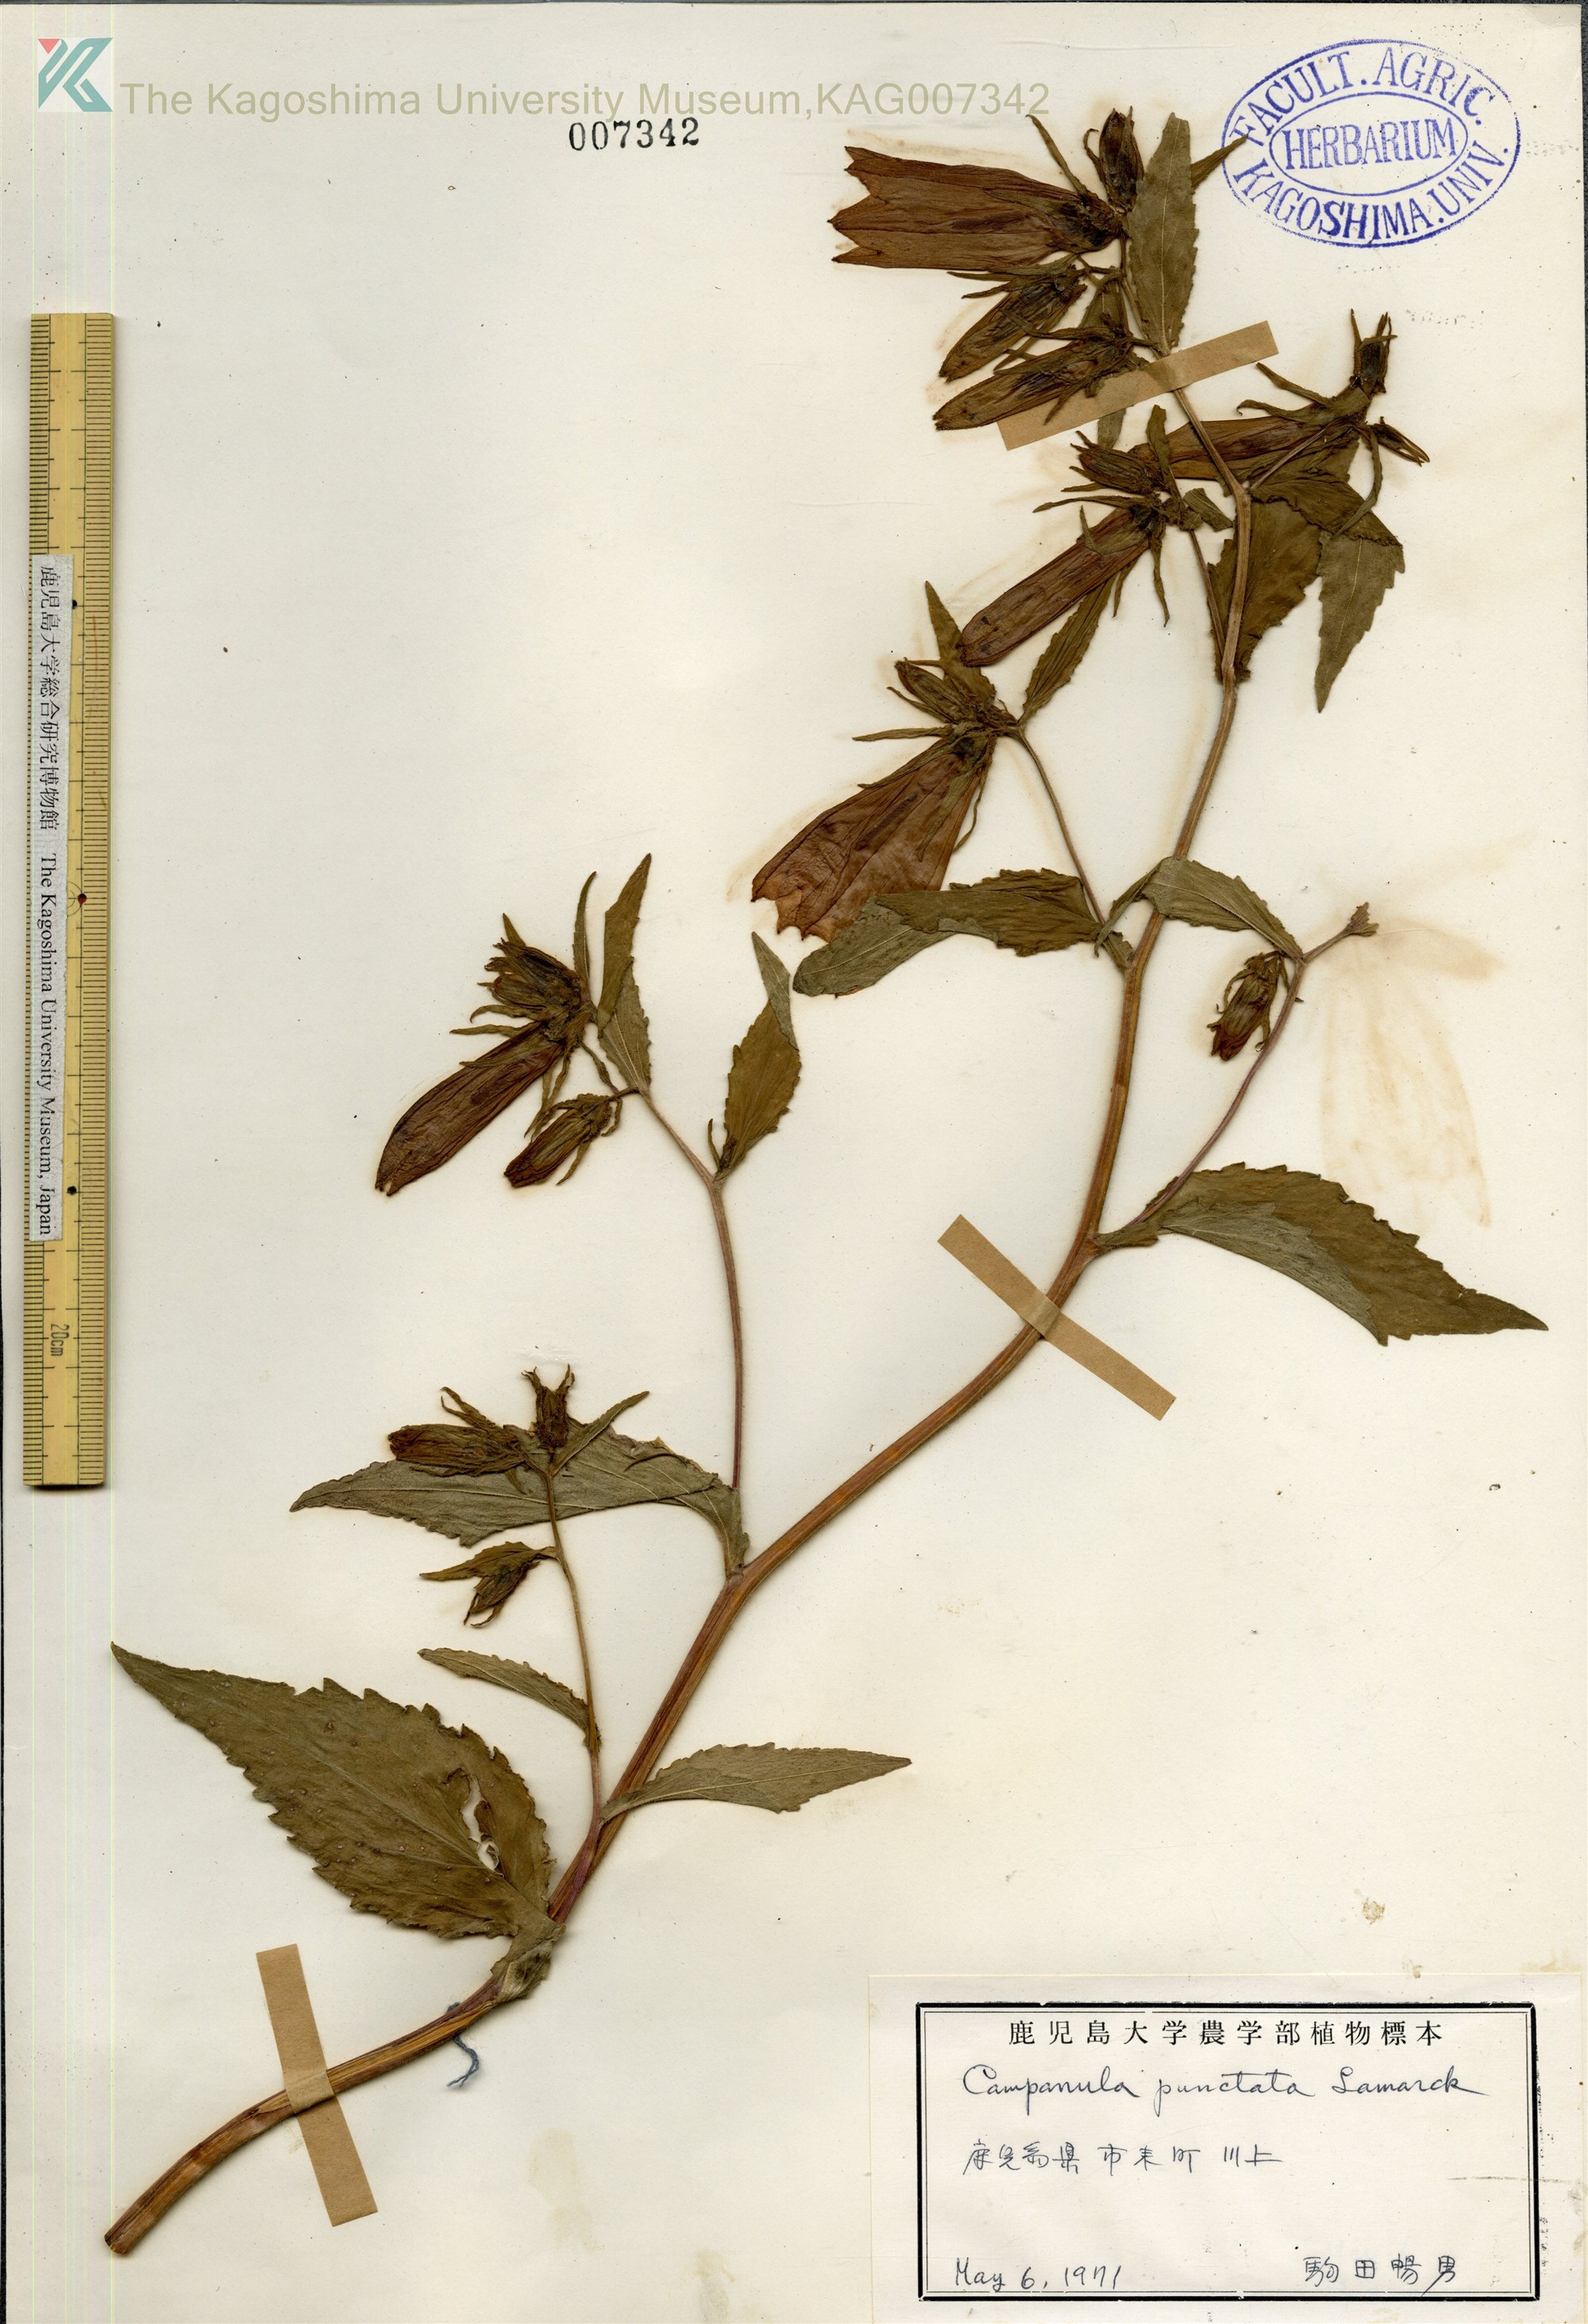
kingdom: Plantae
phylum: Tracheophyta
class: Magnoliopsida
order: Asterales
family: Campanulaceae
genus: Campanula
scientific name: Campanula punctata
